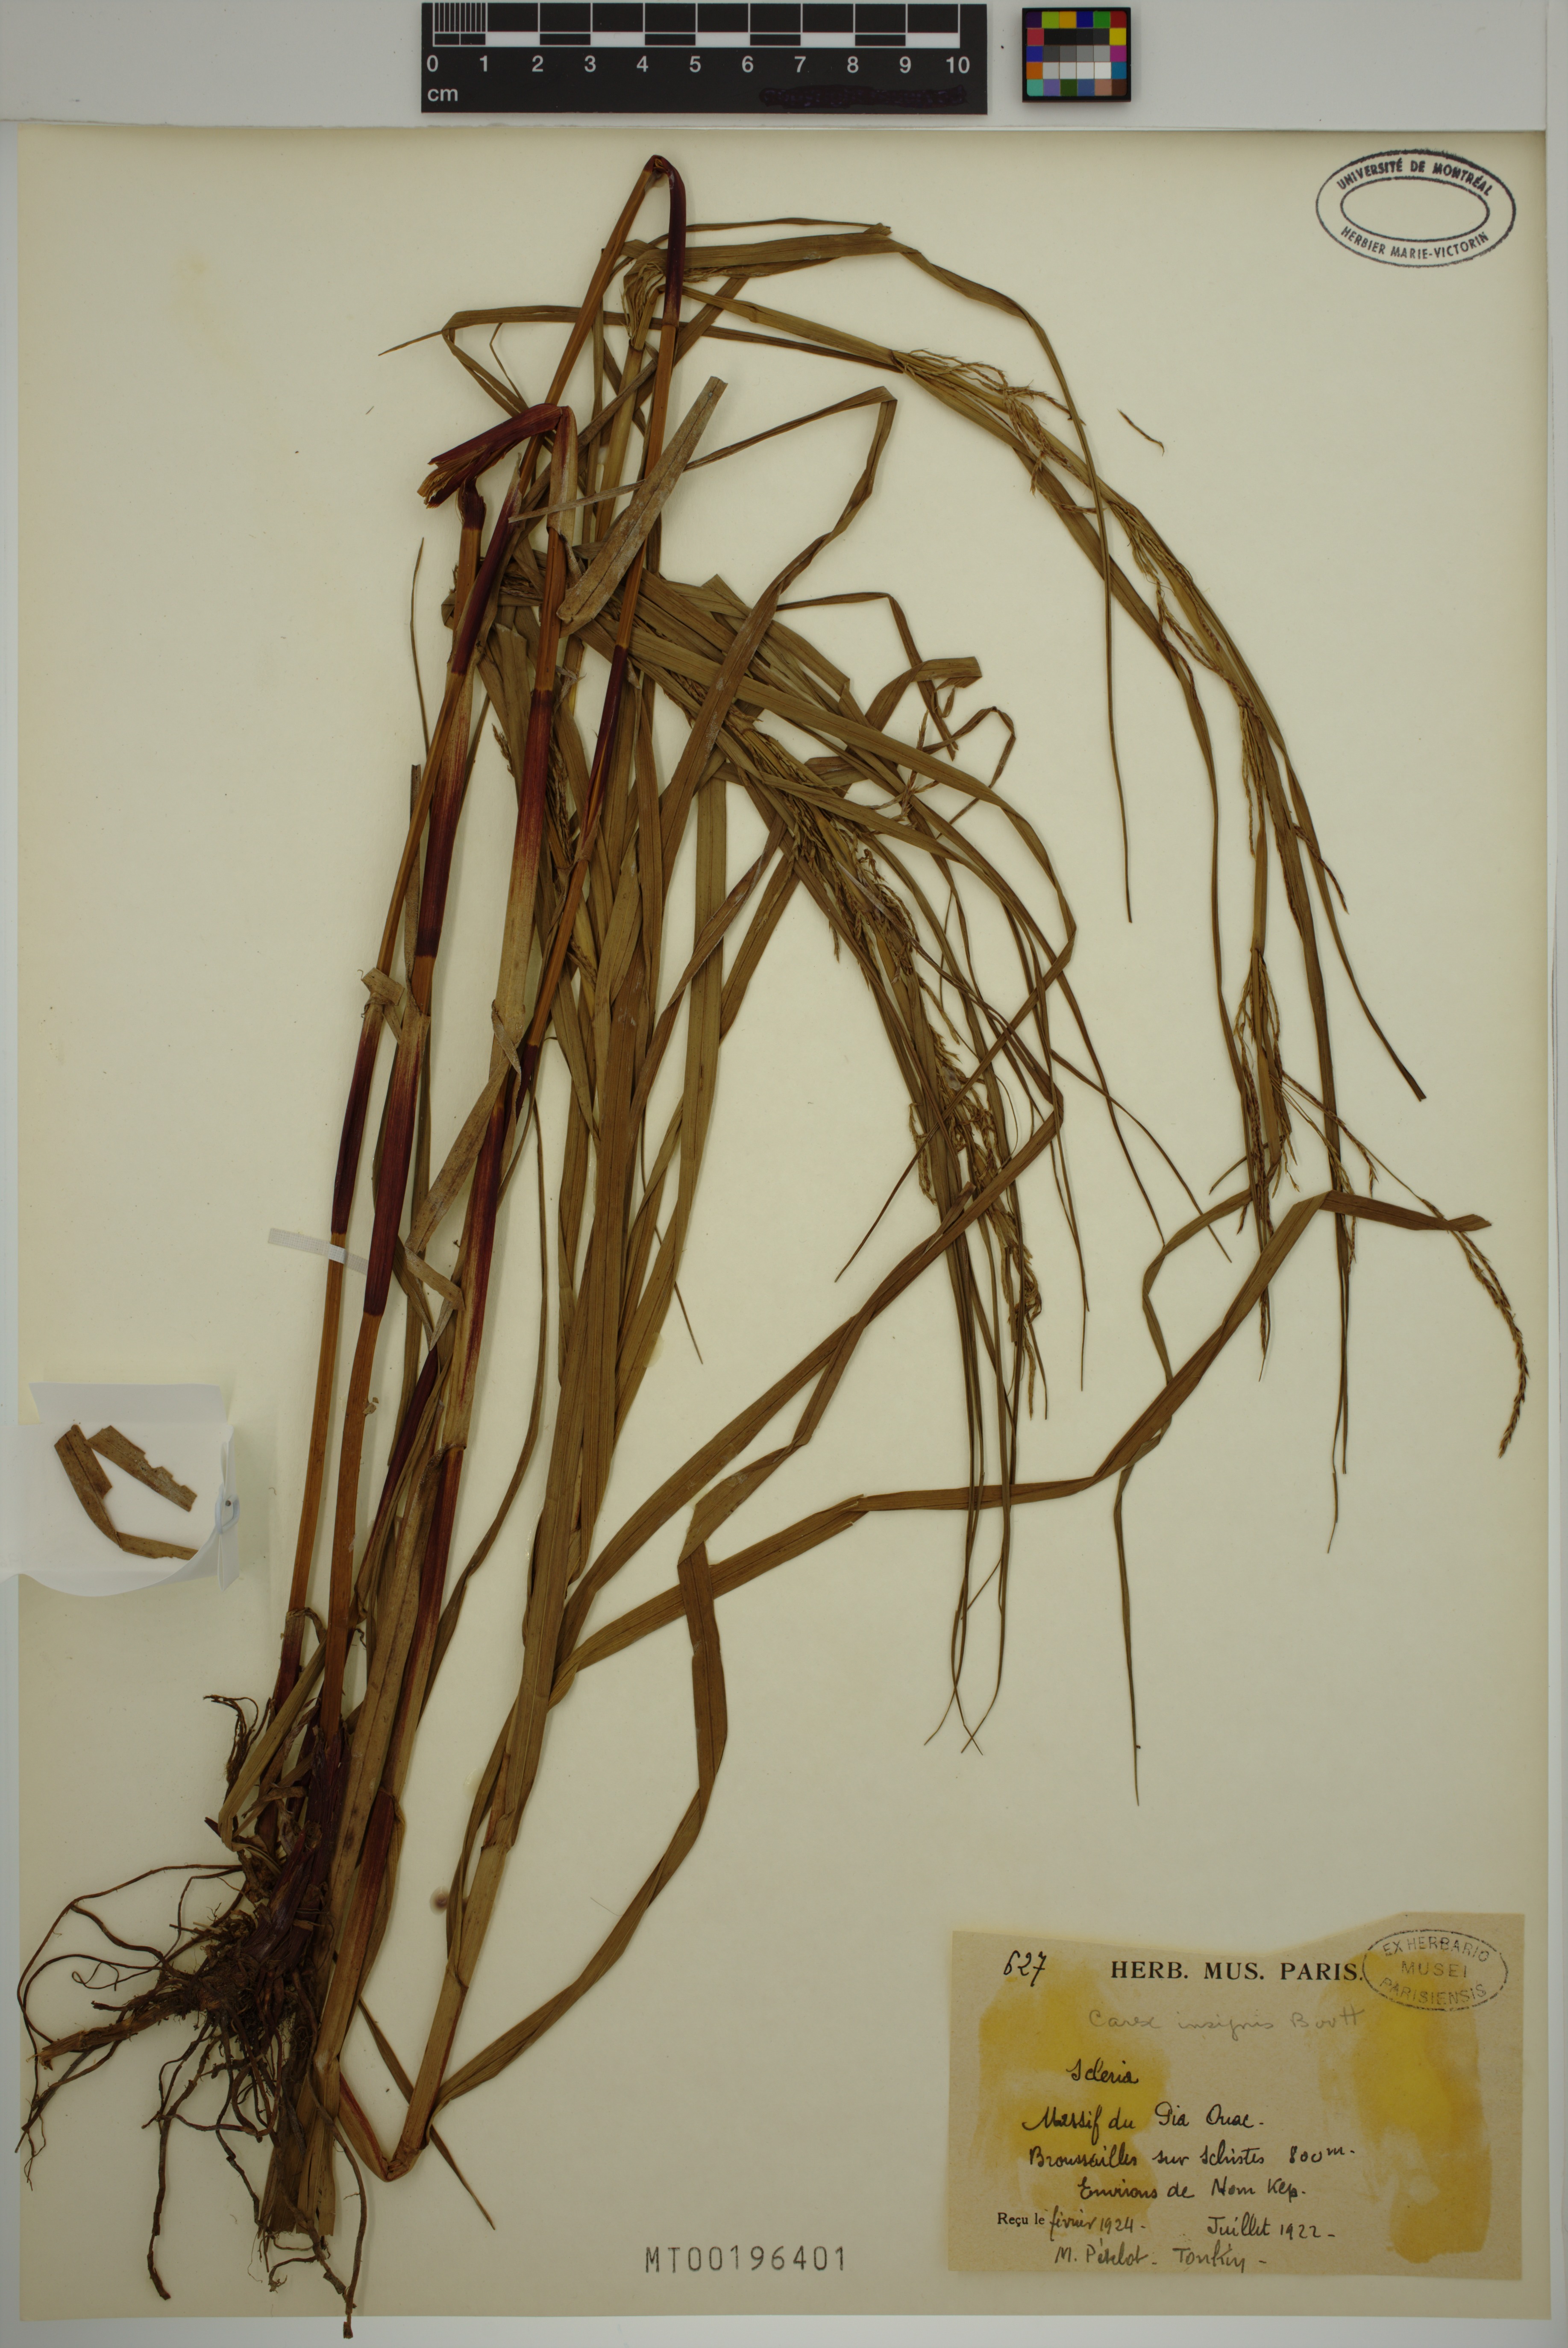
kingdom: Plantae
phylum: Tracheophyta
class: Liliopsida
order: Poales
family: Cyperaceae
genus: Carex
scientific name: Carex insignis
